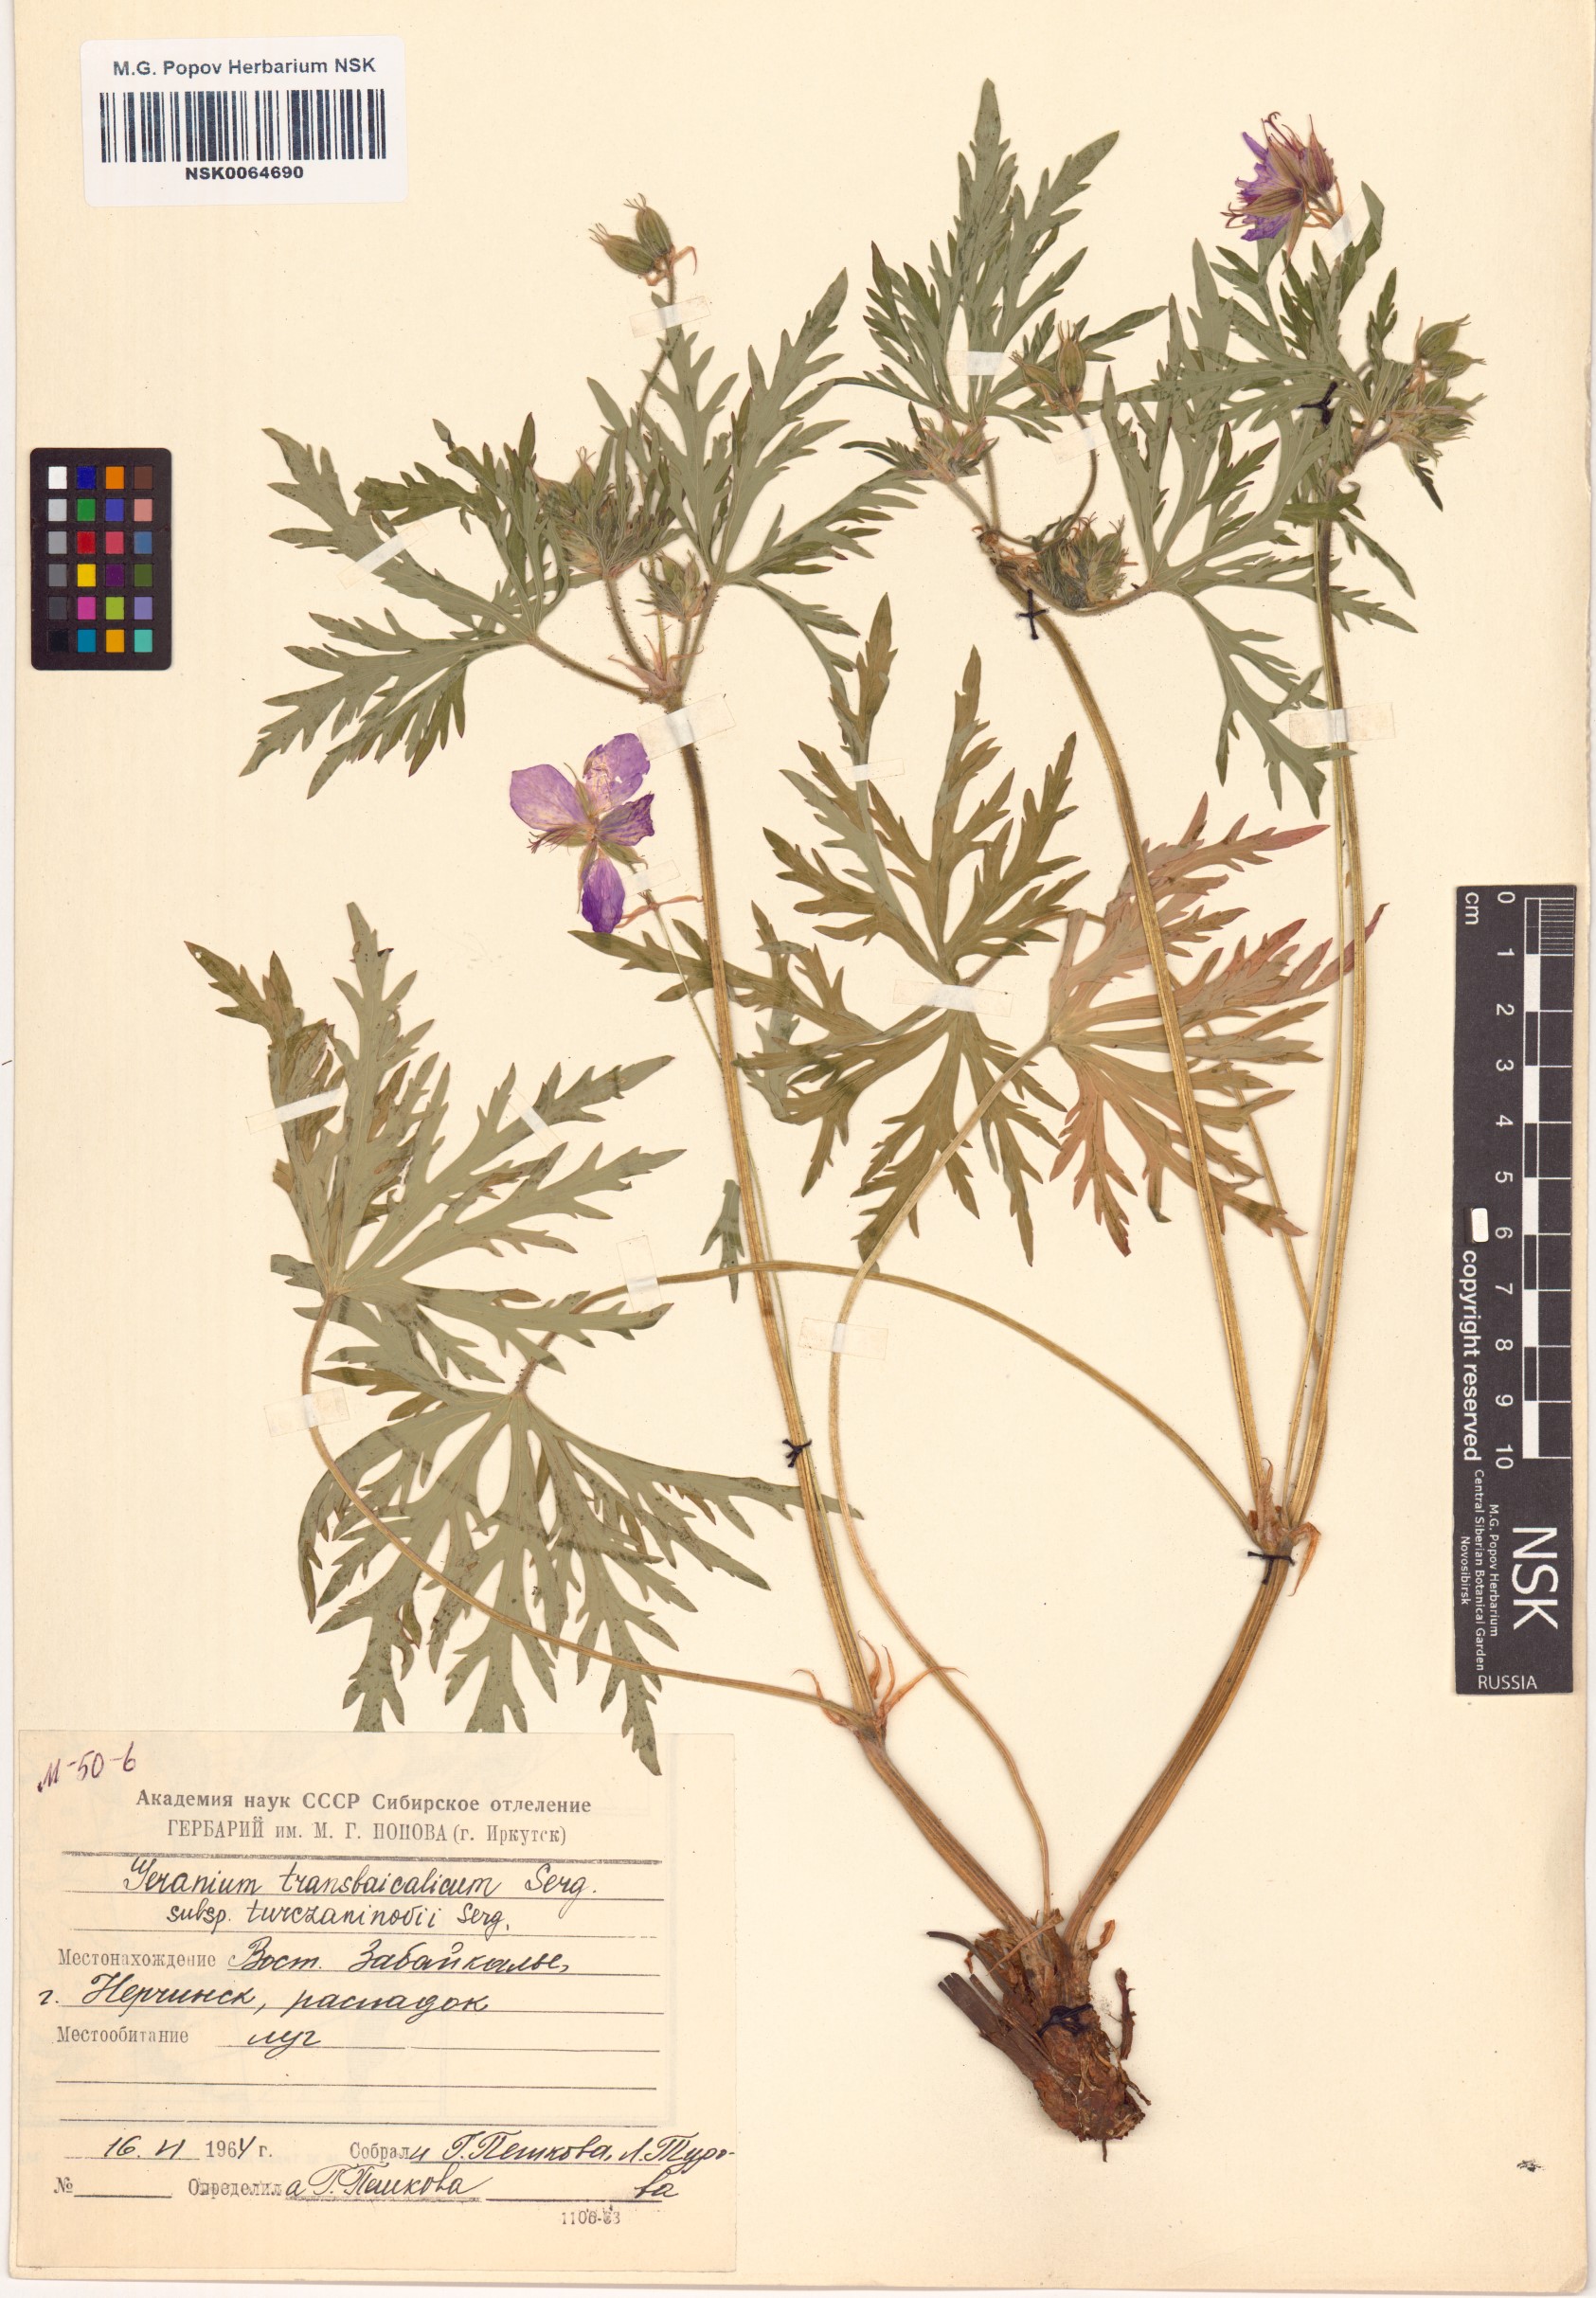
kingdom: Plantae
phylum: Tracheophyta
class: Magnoliopsida
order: Geraniales
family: Geraniaceae
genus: Geranium
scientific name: Geranium pratense
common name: Meadow crane's-bill
